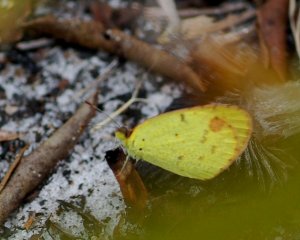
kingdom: Animalia
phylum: Arthropoda
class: Insecta
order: Lepidoptera
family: Pieridae
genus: Pyrisitia
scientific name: Pyrisitia lisa
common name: Little Yellow
